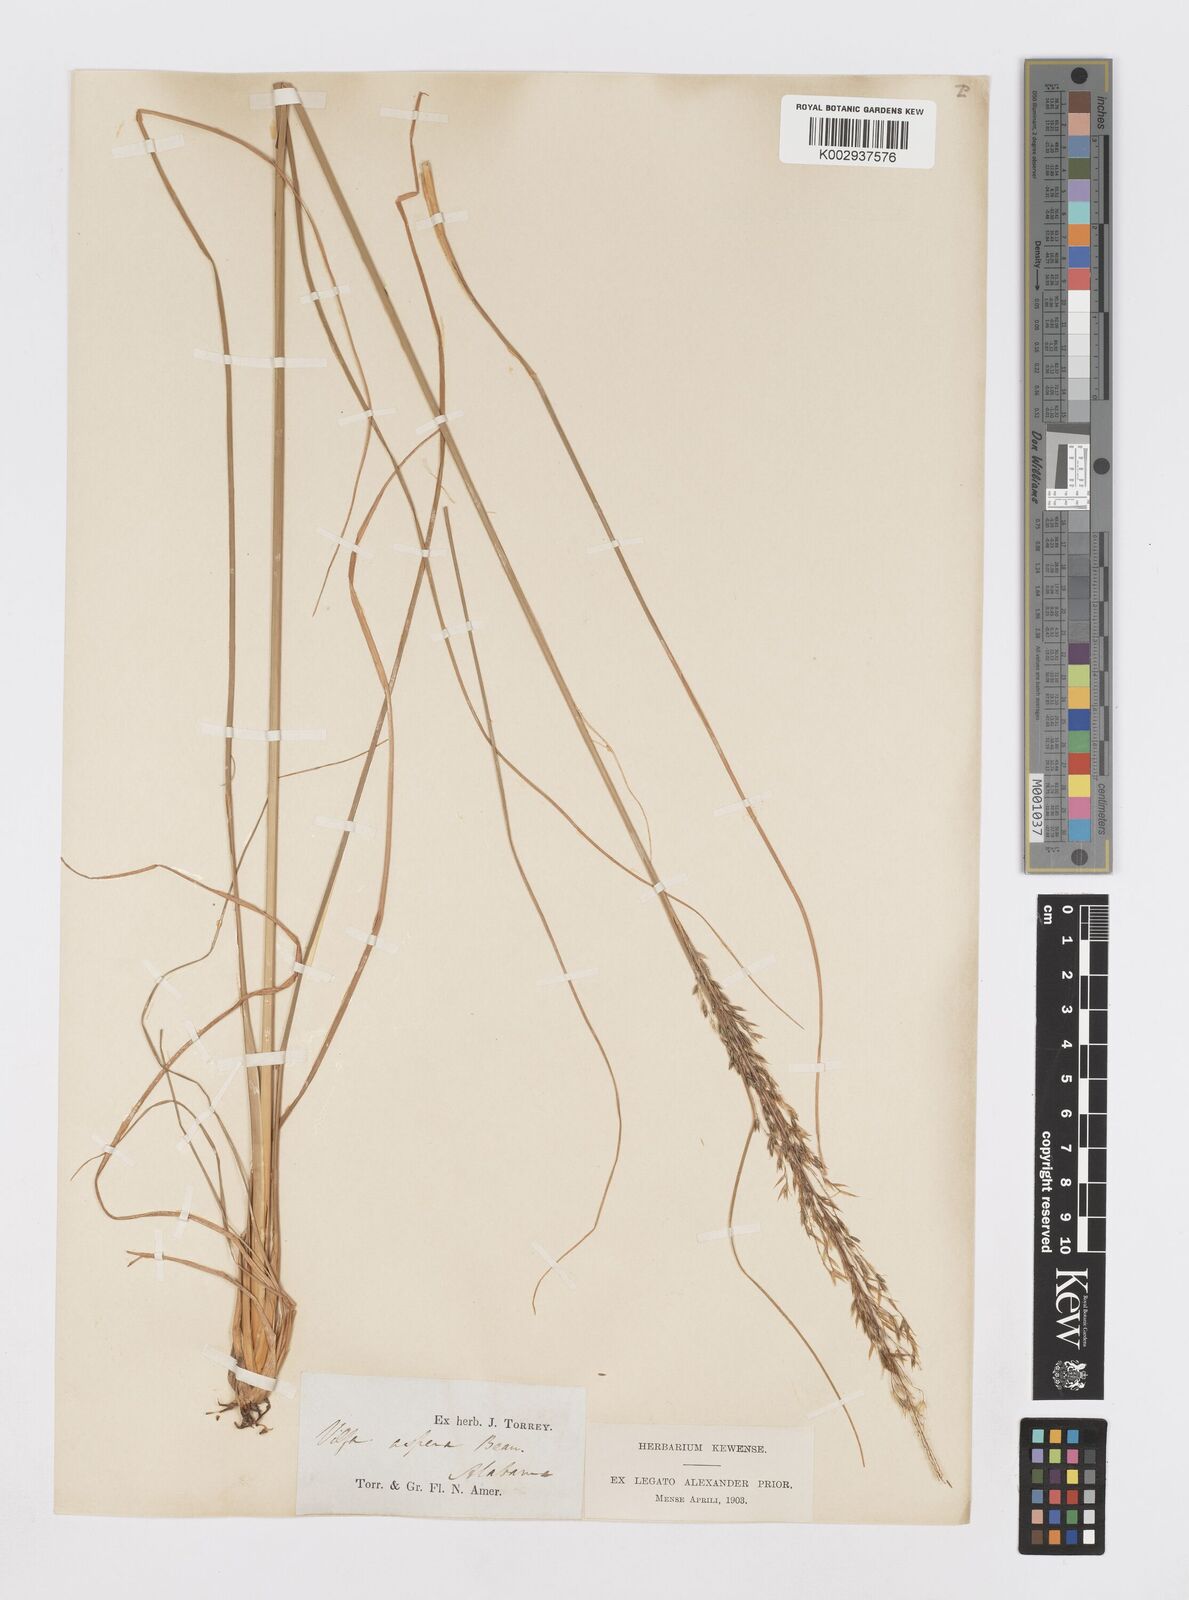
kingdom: Plantae
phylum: Tracheophyta
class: Liliopsida
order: Poales
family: Poaceae
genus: Sporobolus
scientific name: Sporobolus
